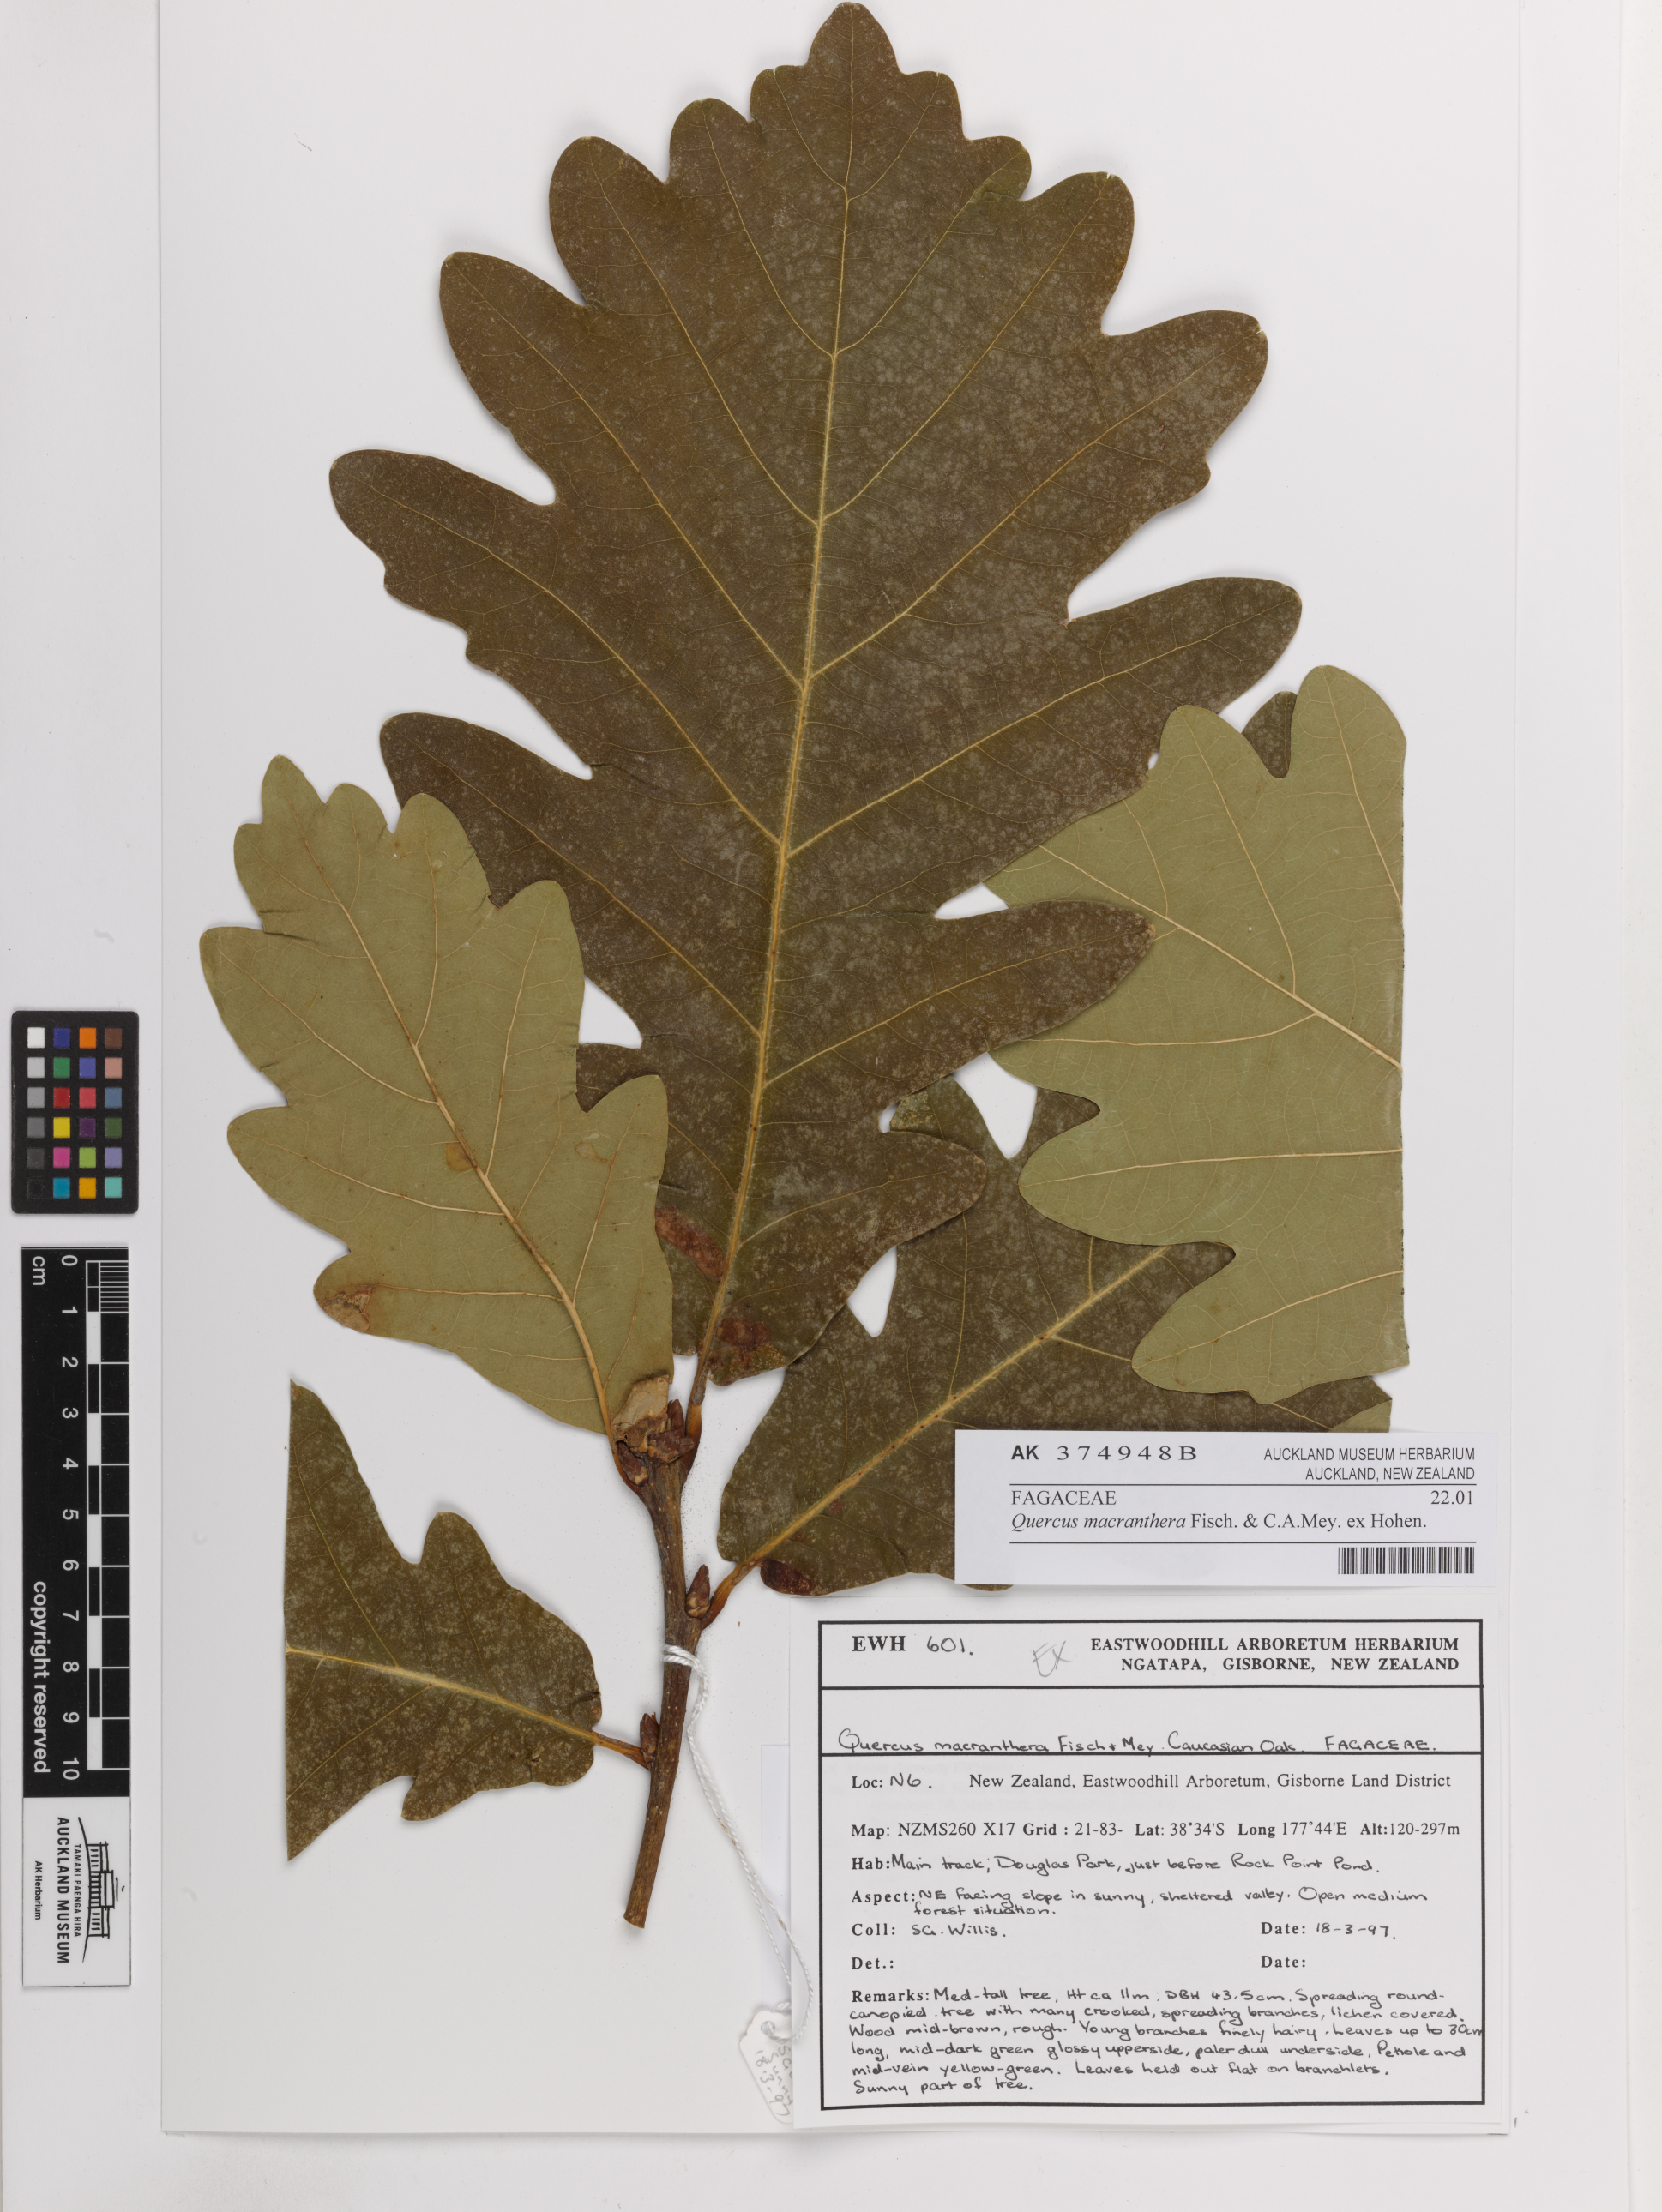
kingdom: Plantae
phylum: Tracheophyta
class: Magnoliopsida
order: Fagales
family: Fagaceae
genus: Quercus
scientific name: Quercus macranthera
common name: Caucasian oak
